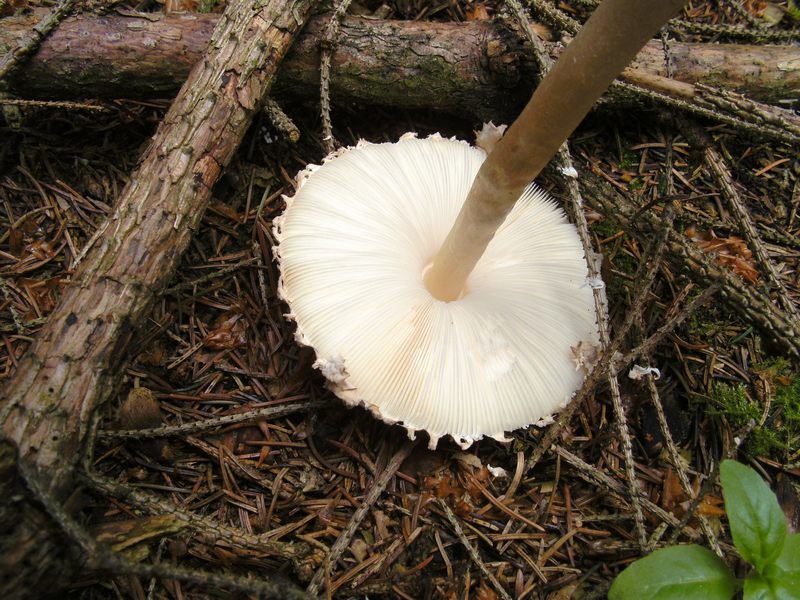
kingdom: Fungi
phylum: Basidiomycota
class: Agaricomycetes
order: Agaricales
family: Agaricaceae
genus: Leucoagaricus
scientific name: Leucoagaricus nympharum
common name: gran-silkehat
